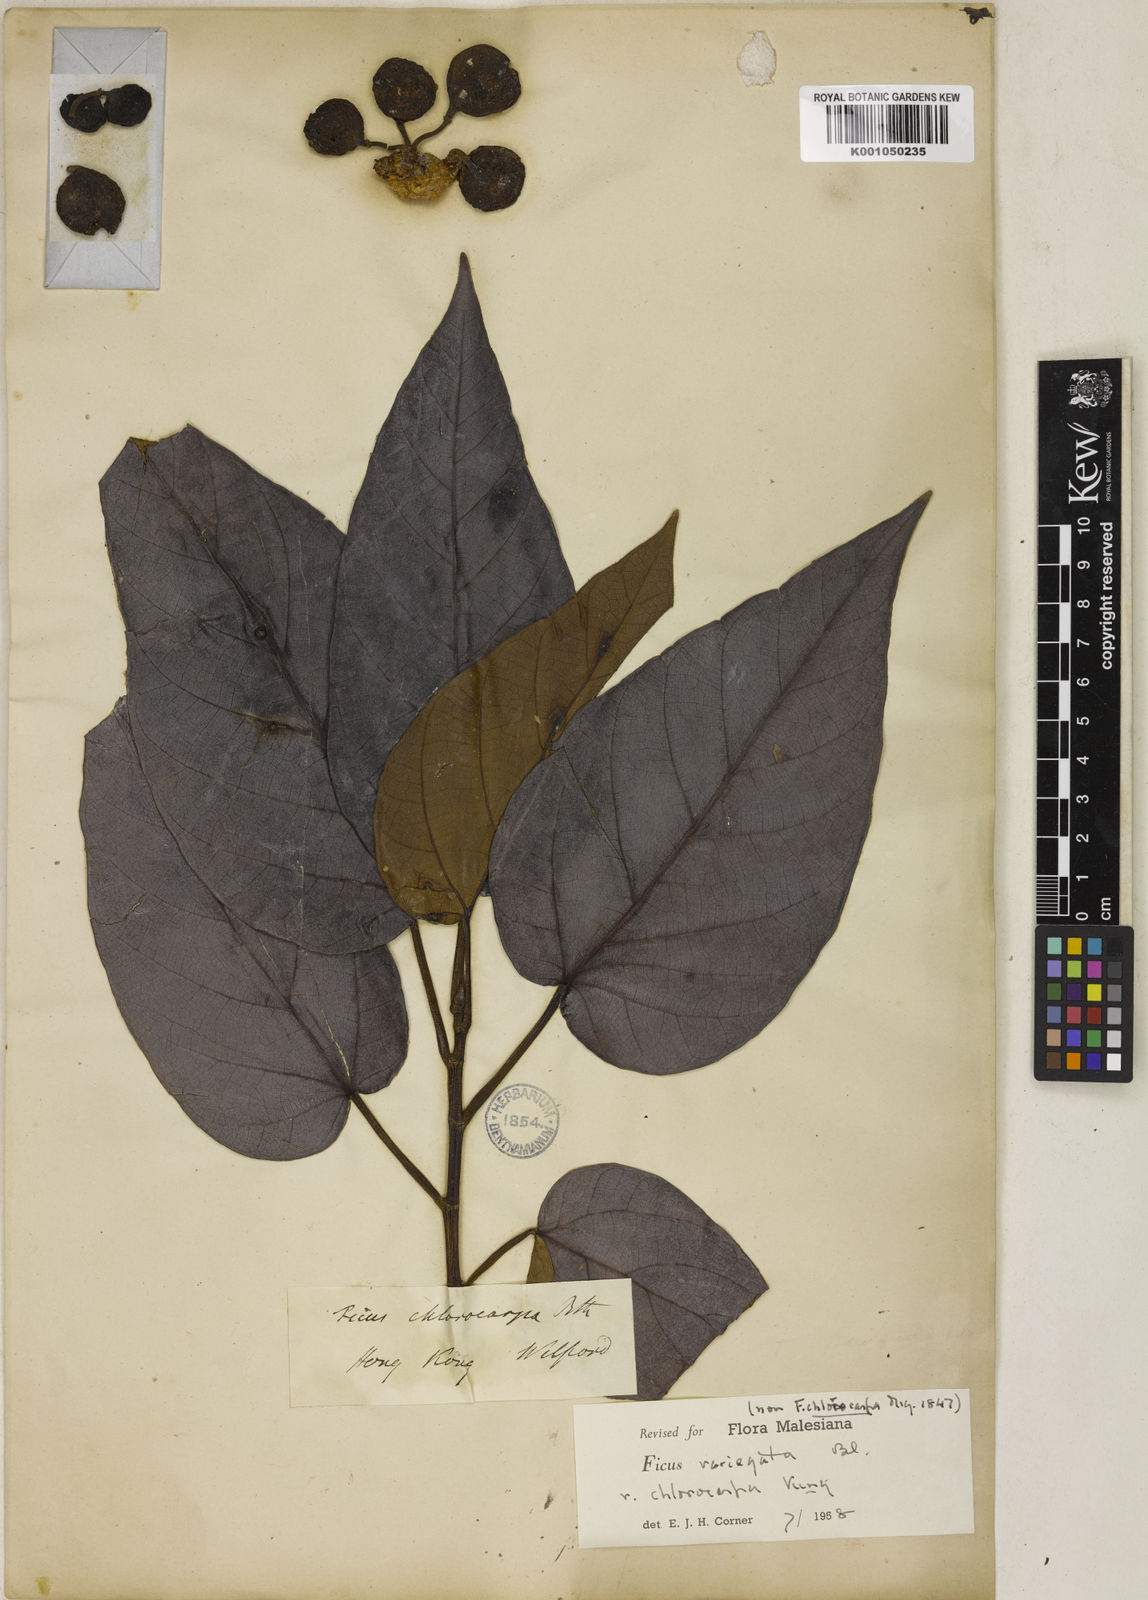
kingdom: Plantae
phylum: Tracheophyta
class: Magnoliopsida
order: Rosales
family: Moraceae
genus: Ficus
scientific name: Ficus variegata
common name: Variegated fig
